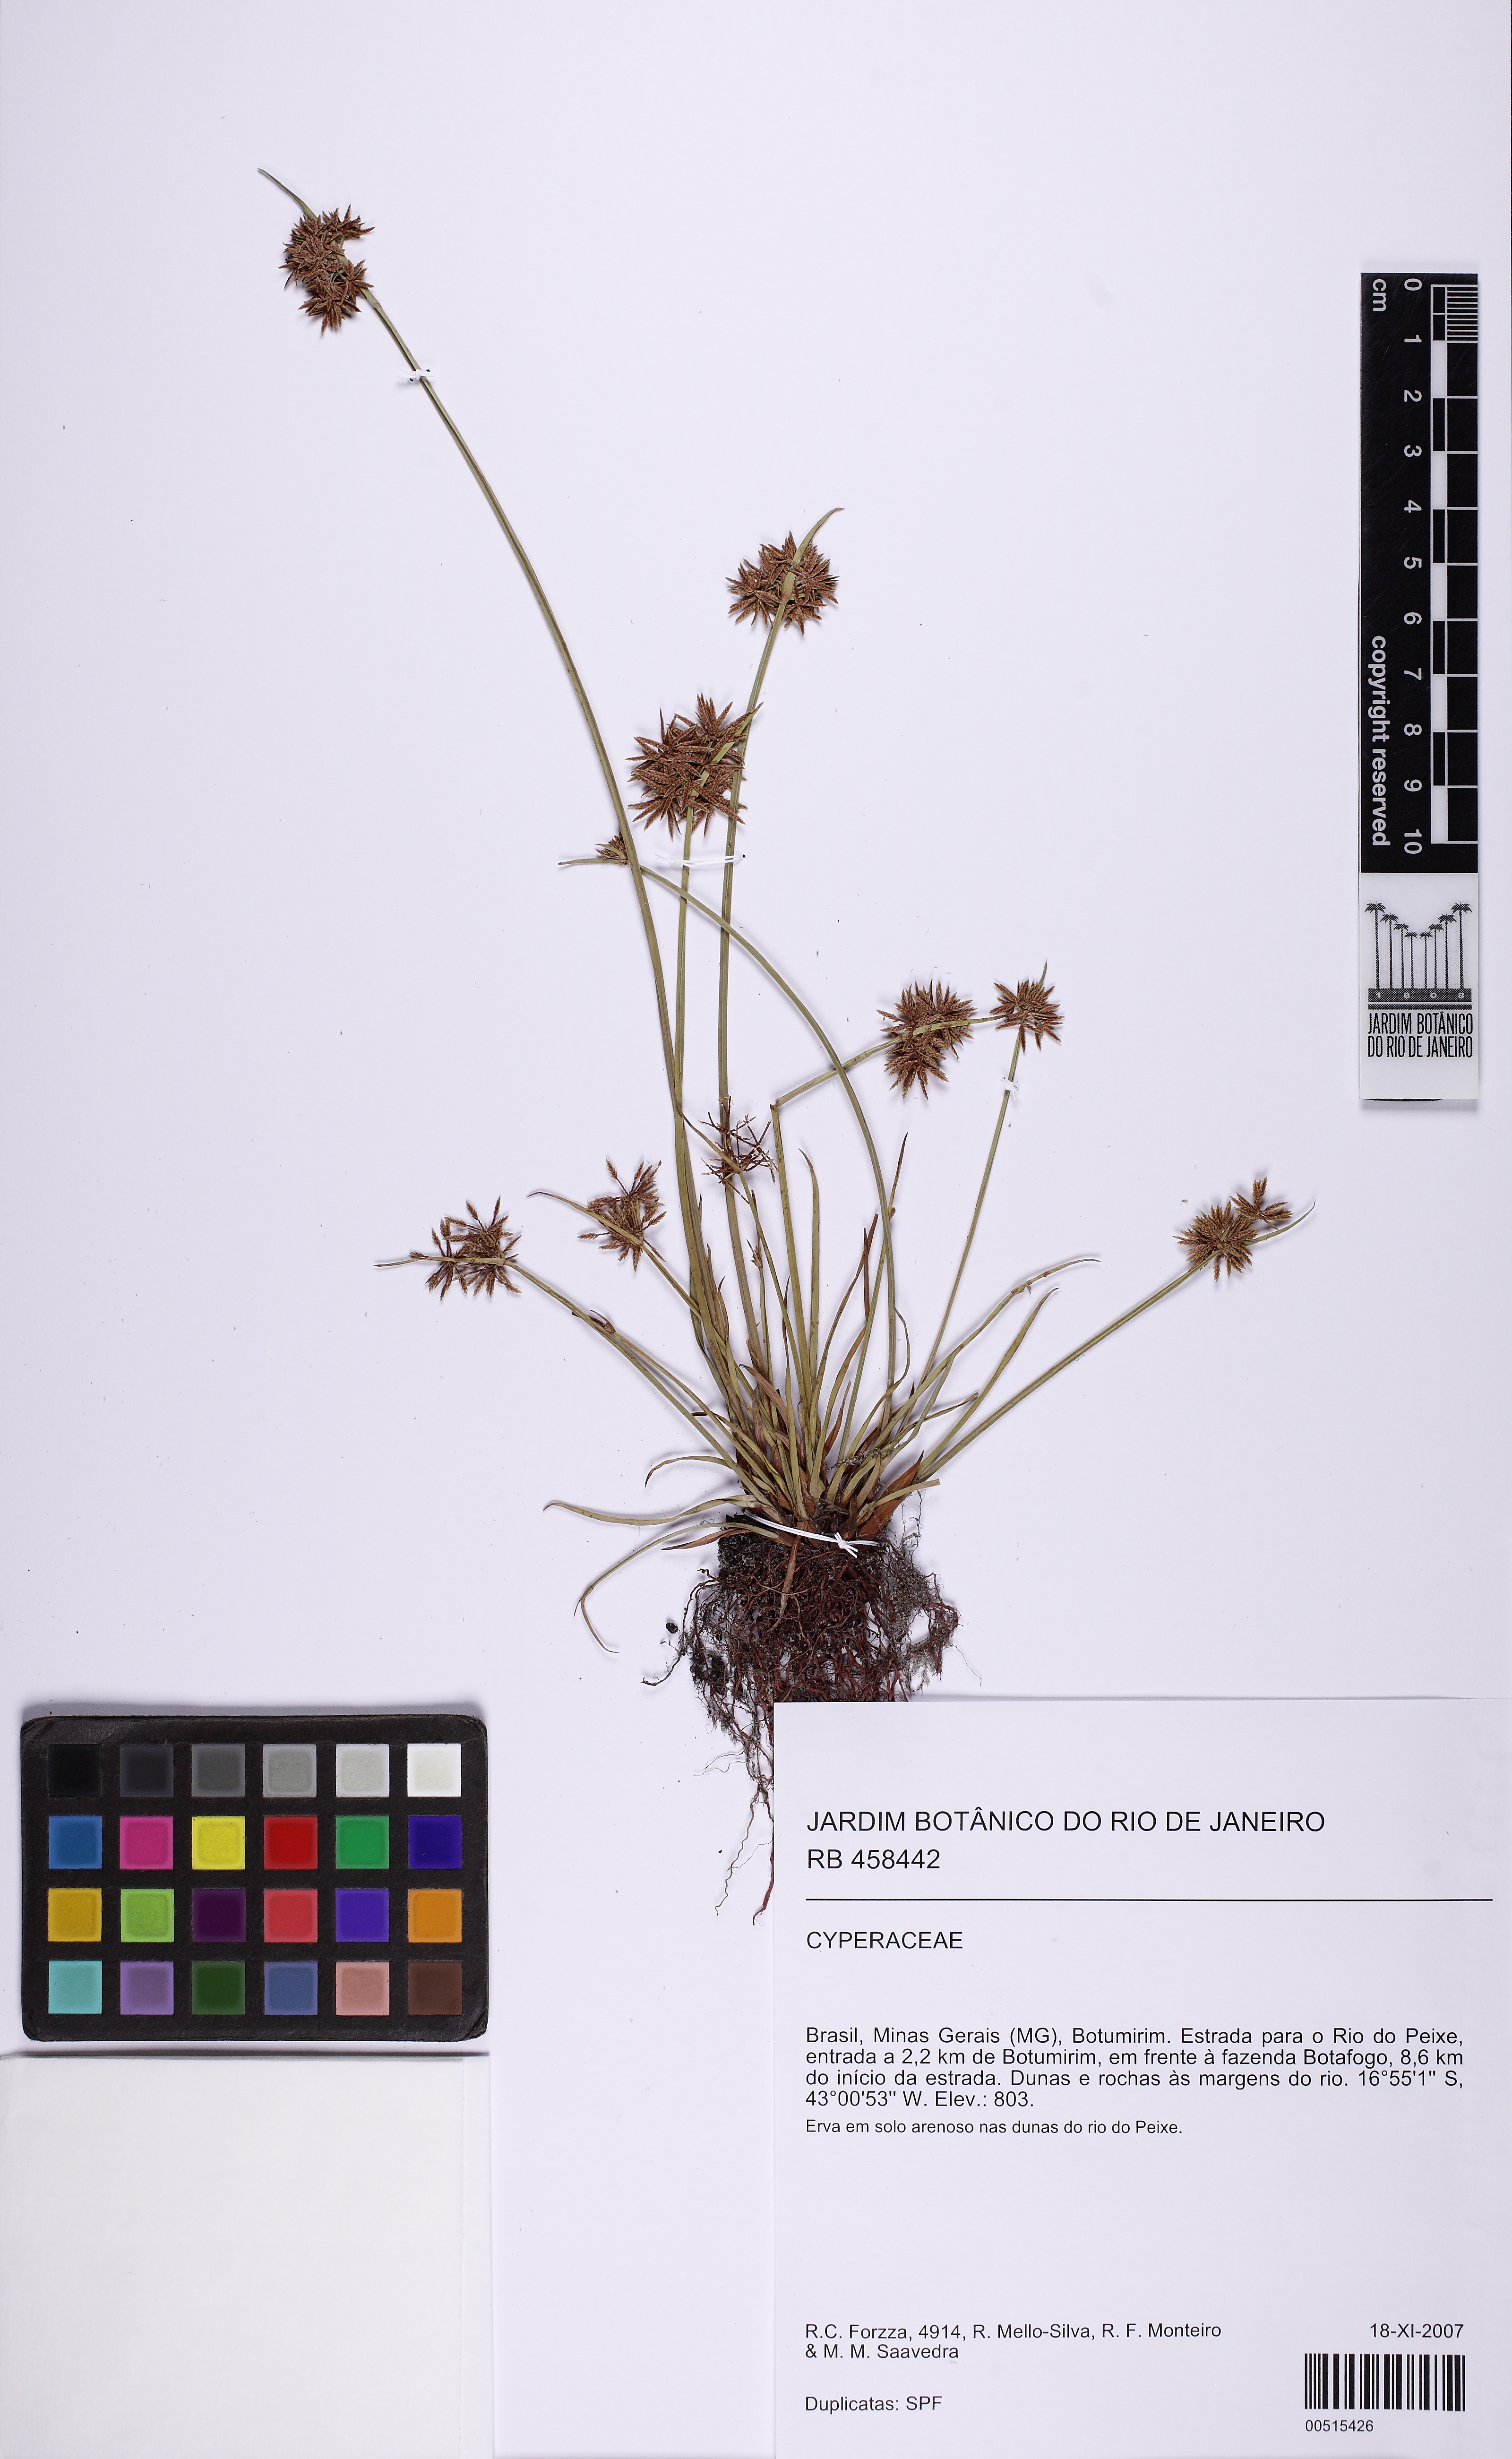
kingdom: Plantae
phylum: Tracheophyta
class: Liliopsida
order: Poales
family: Cyperaceae
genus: Cyperus
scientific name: Cyperus haspan
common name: Haspan flatsedge
